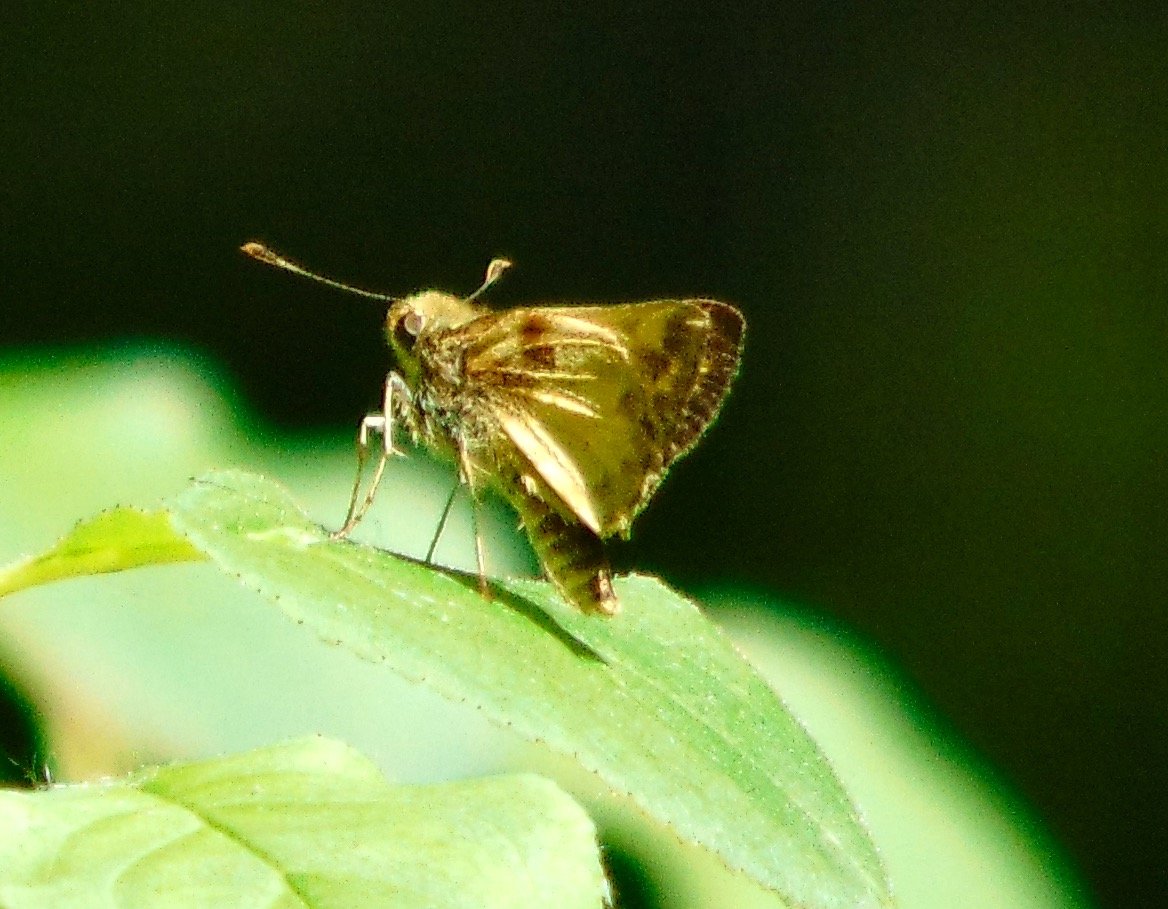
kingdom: Animalia
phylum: Arthropoda
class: Insecta
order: Lepidoptera
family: Hesperiidae
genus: Lon
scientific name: Lon zabulon
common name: Zabulon Skipper
